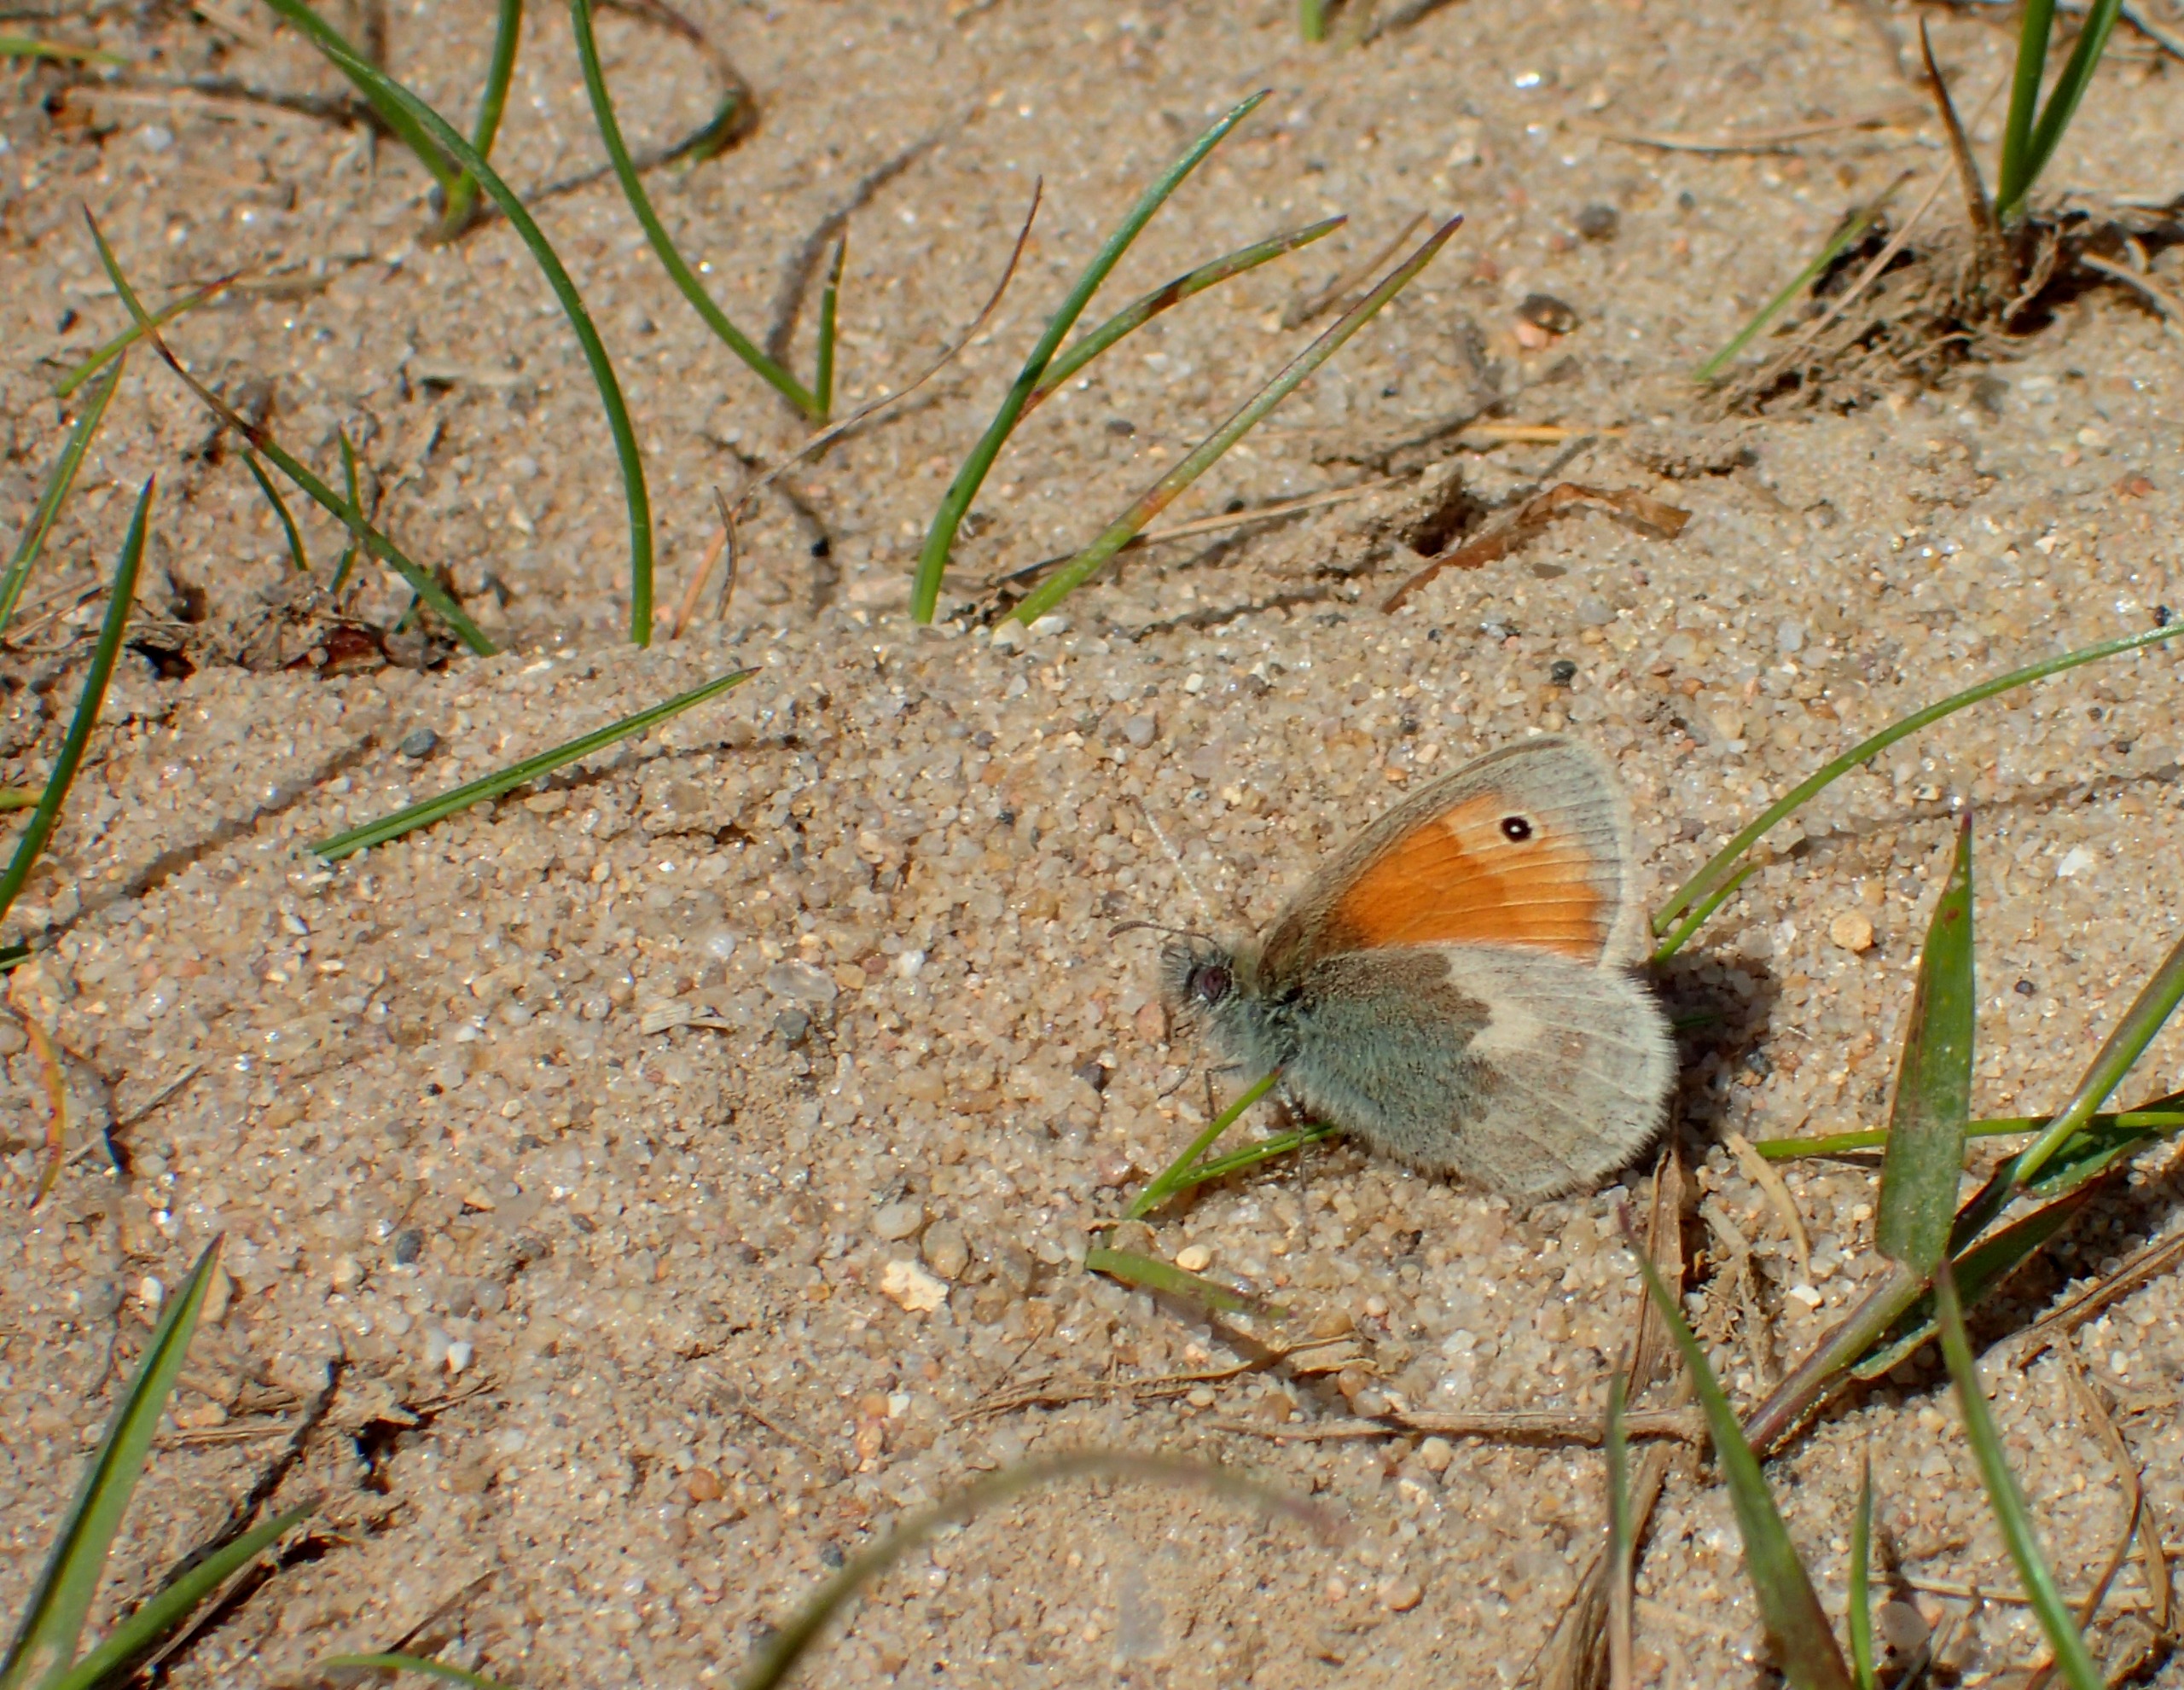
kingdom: Animalia
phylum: Arthropoda
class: Insecta
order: Lepidoptera
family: Nymphalidae
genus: Coenonympha
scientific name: Coenonympha pamphilus
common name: Okkergul randøje
